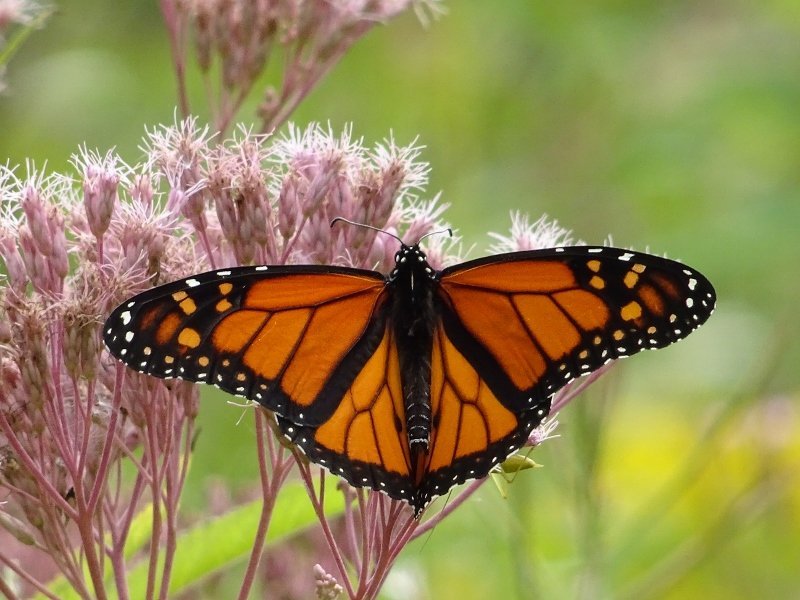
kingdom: Animalia
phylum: Arthropoda
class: Insecta
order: Lepidoptera
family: Nymphalidae
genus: Danaus
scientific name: Danaus plexippus
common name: Monarch
